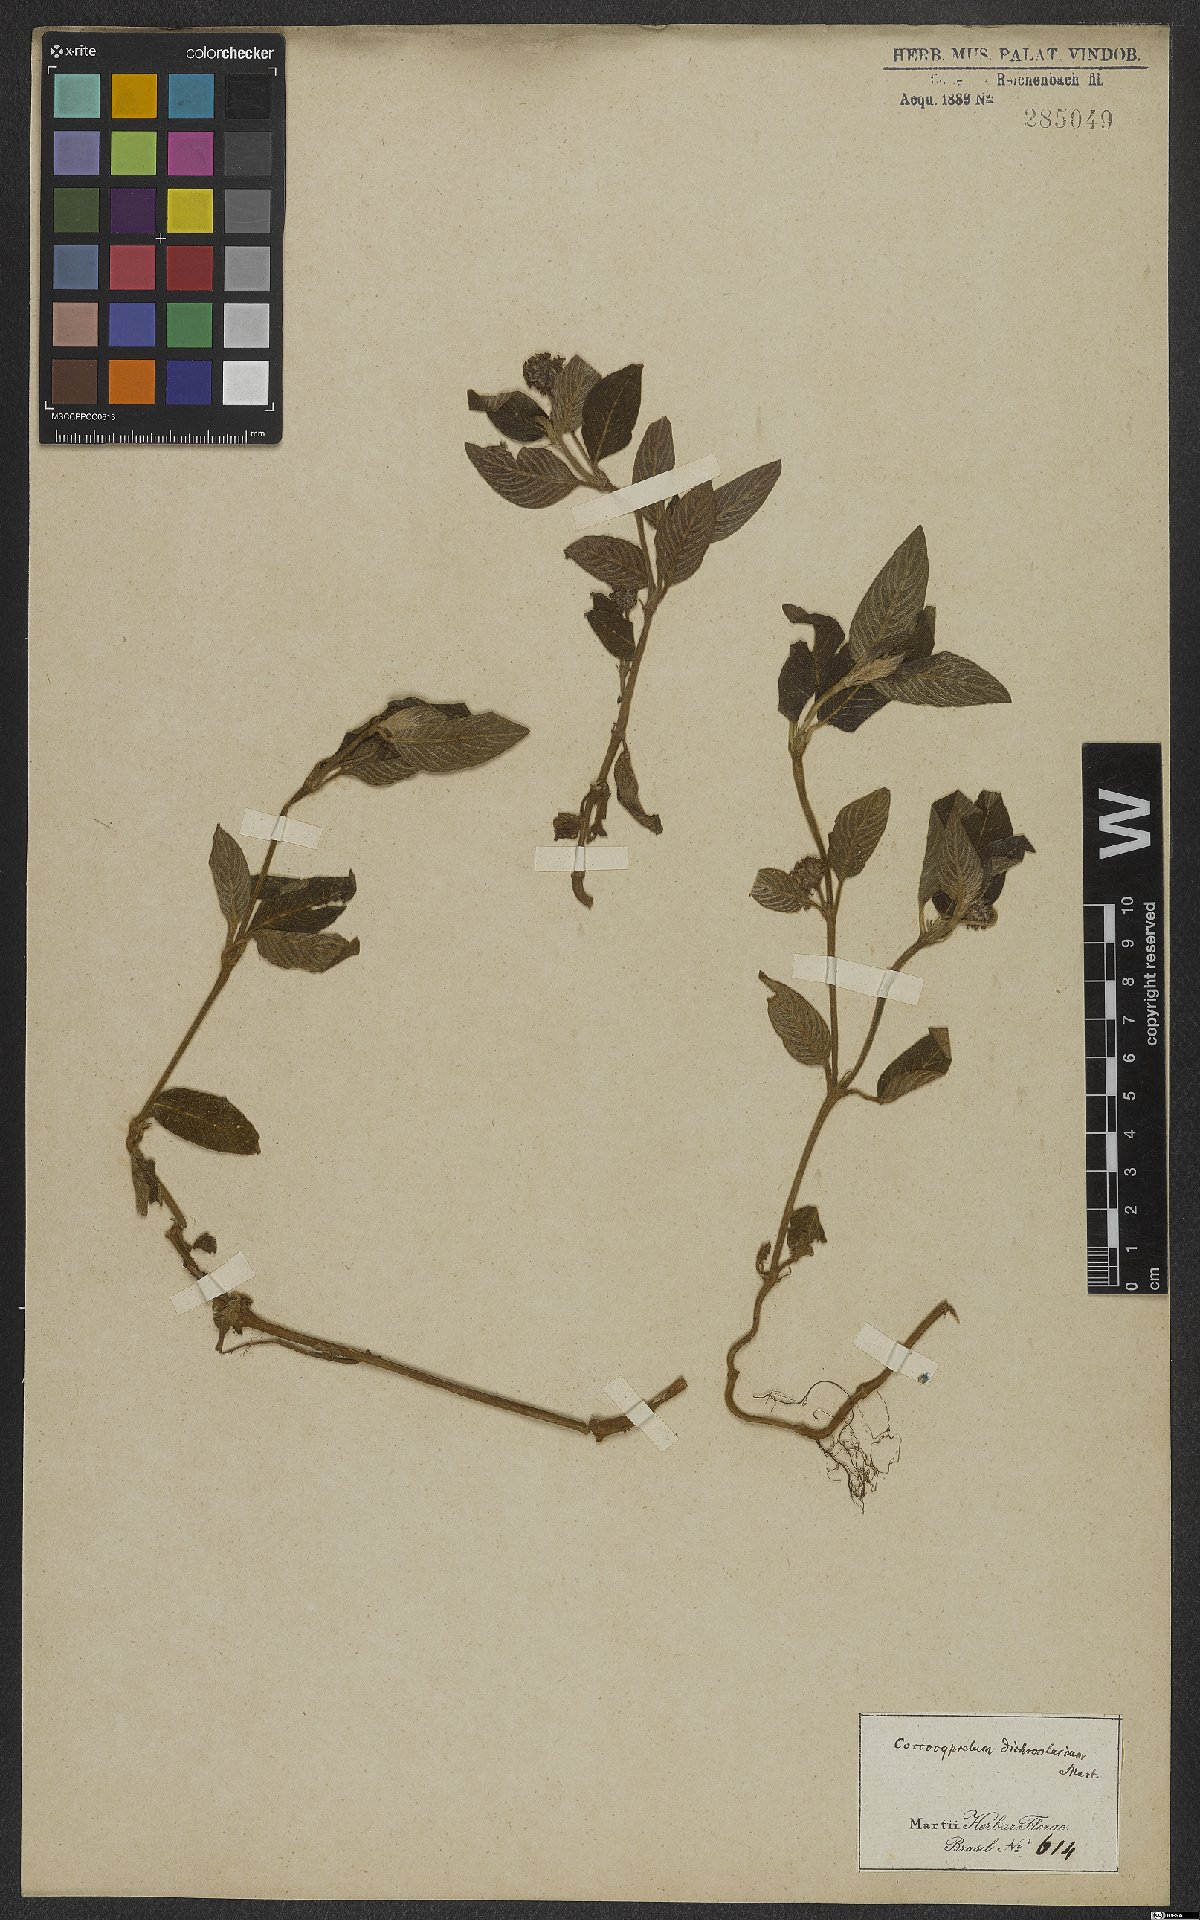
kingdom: Plantae
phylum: Tracheophyta
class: Magnoliopsida
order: Gentianales
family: Rubiaceae
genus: Coccocypselum
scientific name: Coccocypselum lanceolatum
